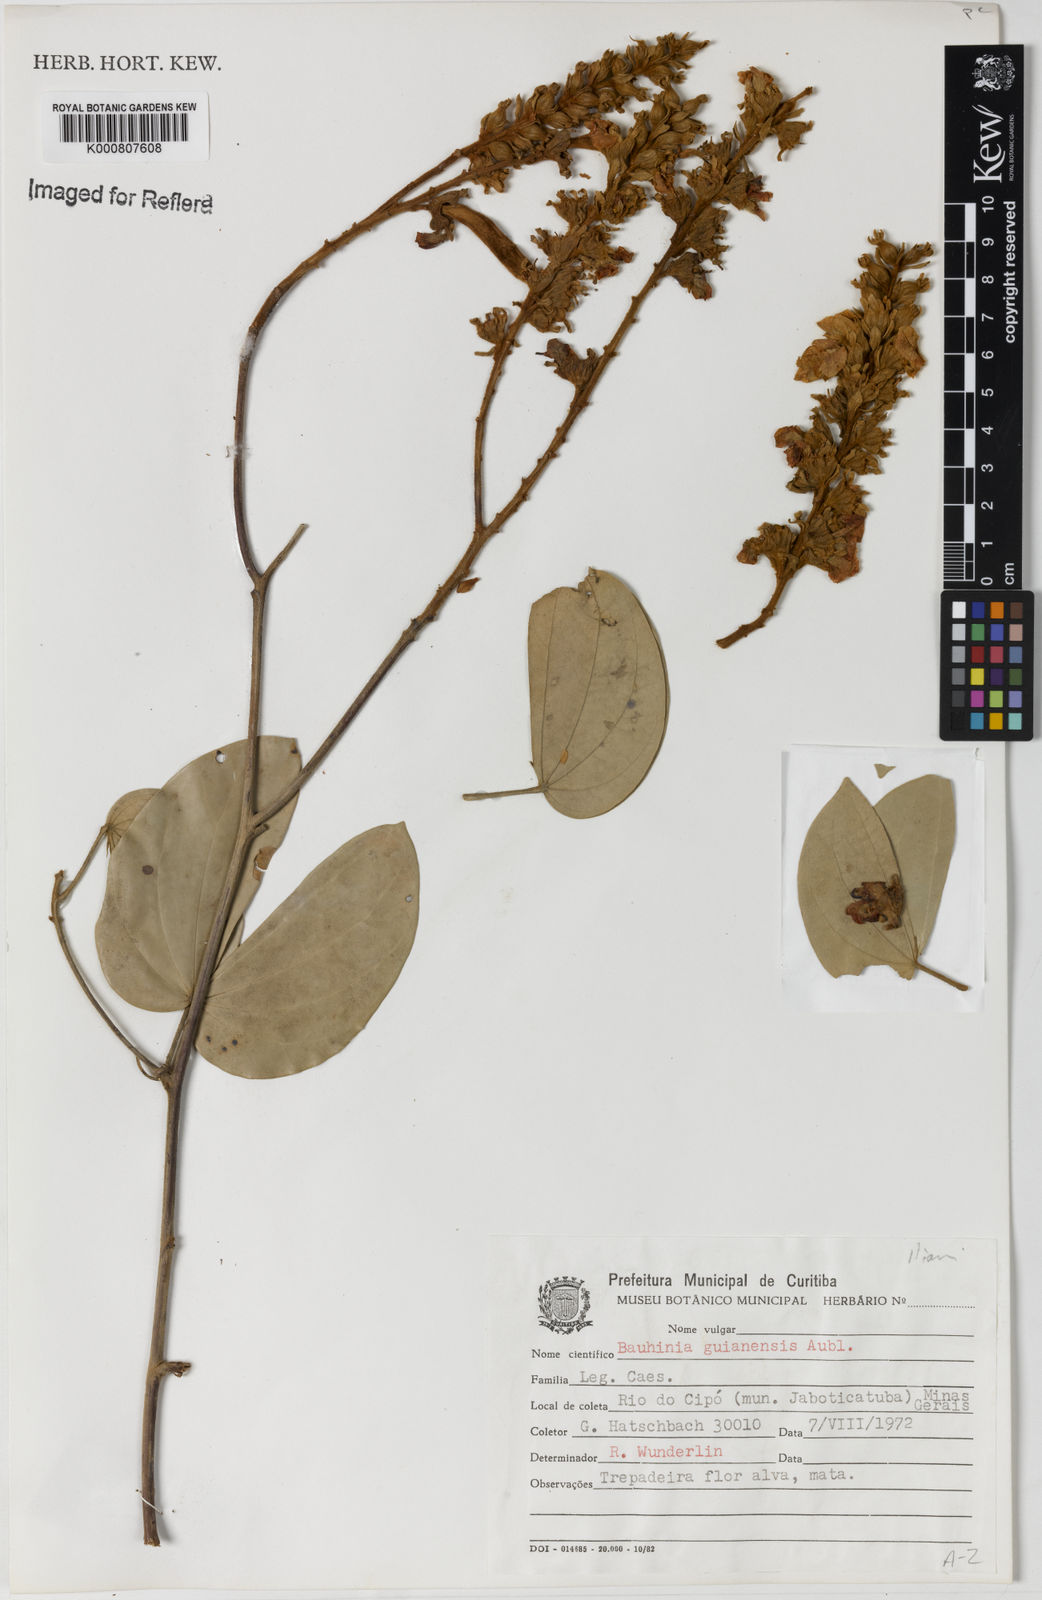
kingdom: Plantae
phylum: Tracheophyta
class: Magnoliopsida
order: Fabales
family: Fabaceae
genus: Schnella
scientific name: Schnella guianensis
